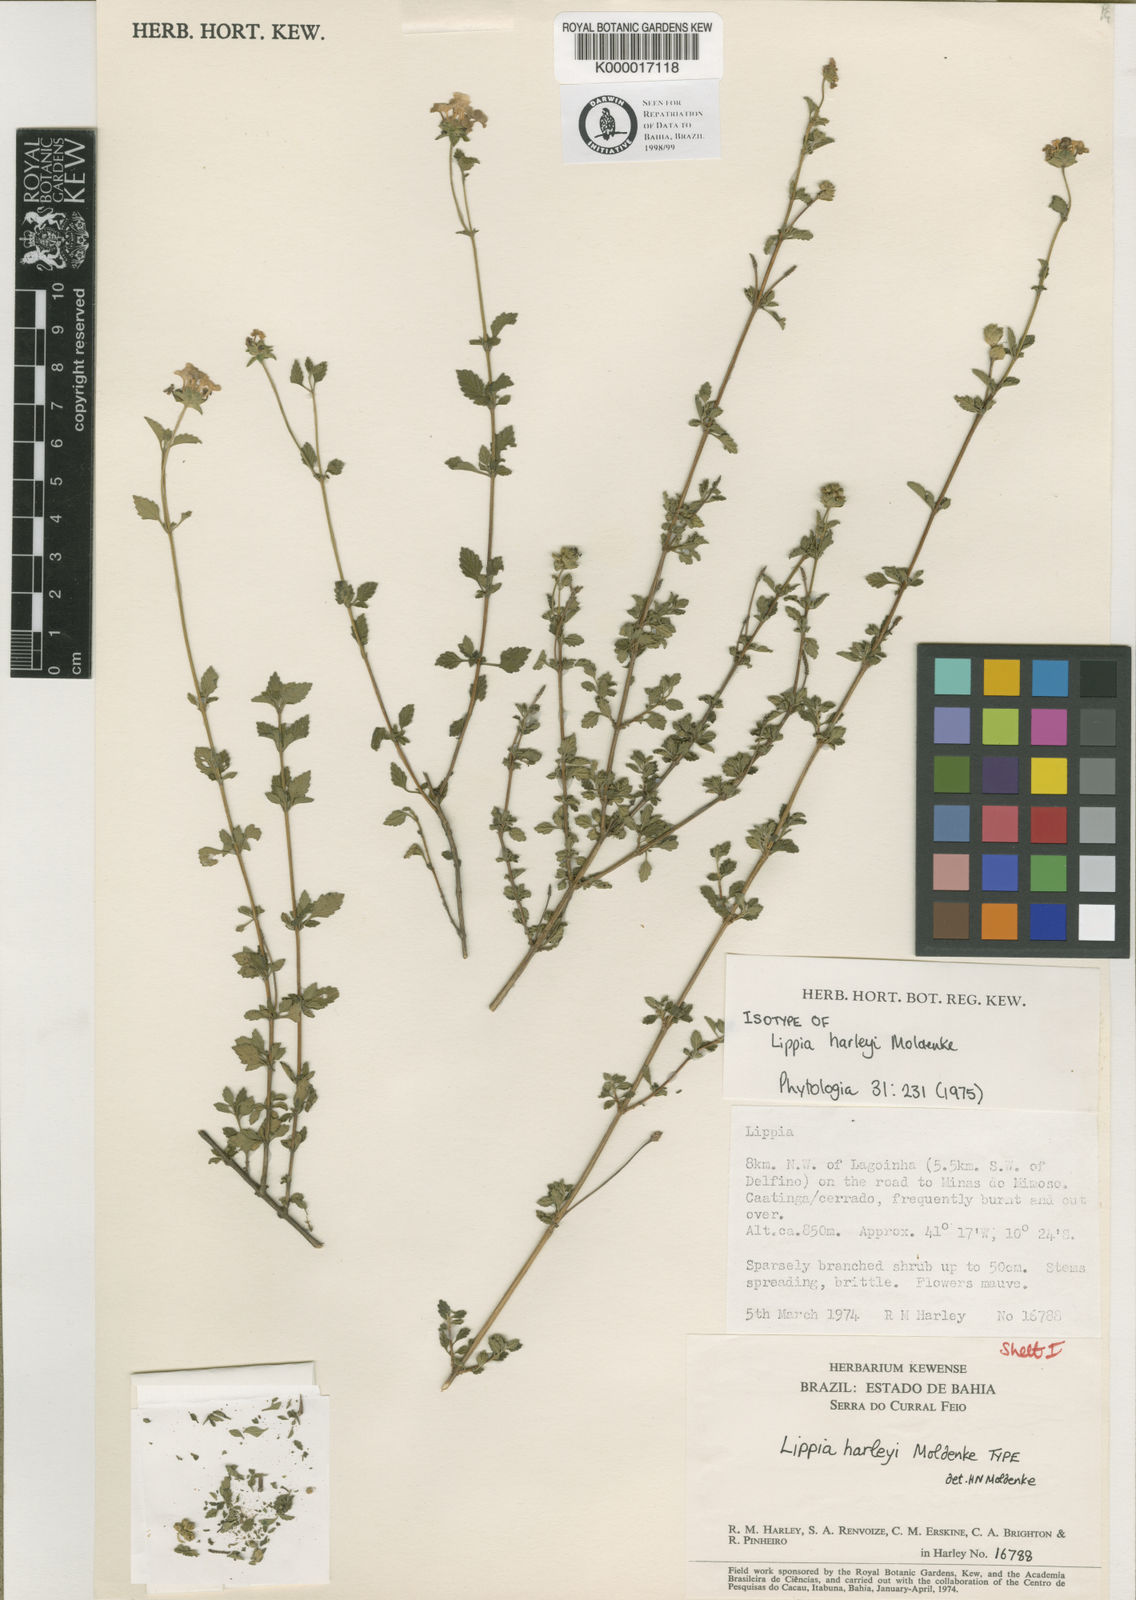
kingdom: Plantae
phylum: Tracheophyta
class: Magnoliopsida
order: Lamiales
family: Verbenaceae
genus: Lippia
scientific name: Lippia harleyi
